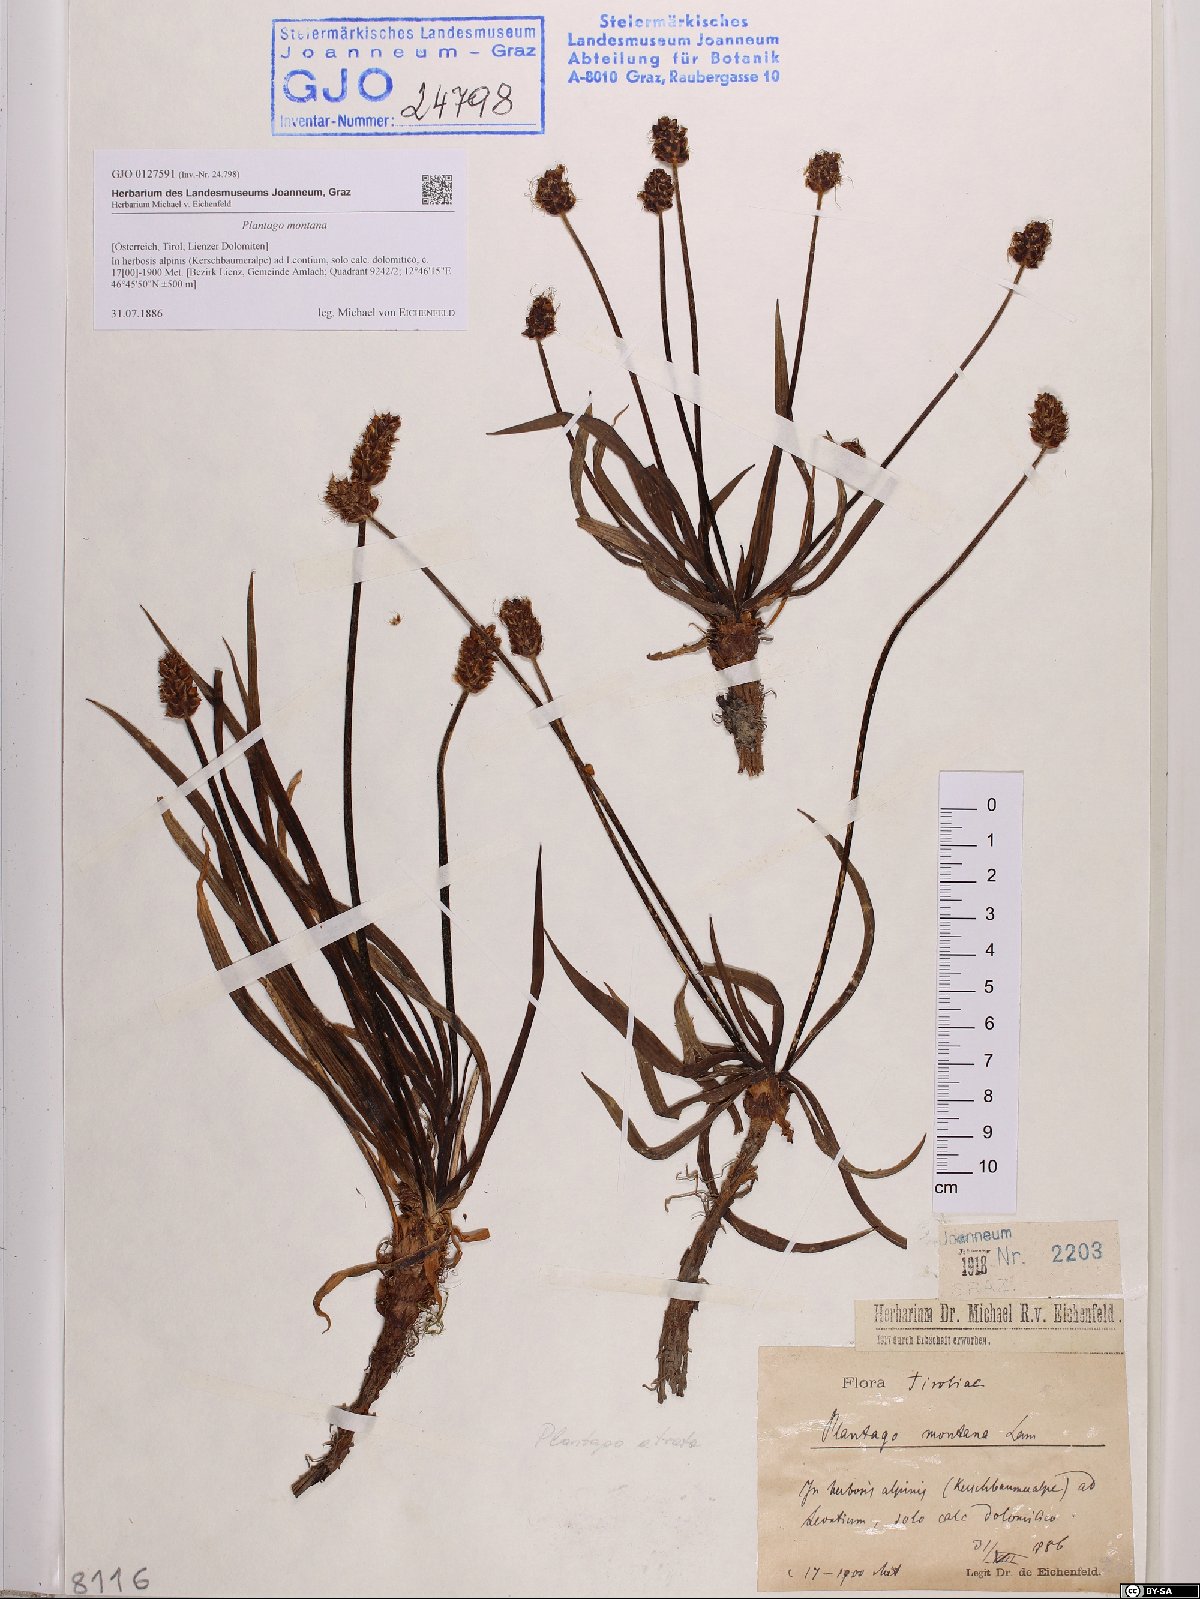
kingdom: Plantae
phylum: Tracheophyta
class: Magnoliopsida
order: Lamiales
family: Plantaginaceae
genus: Plantago
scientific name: Plantago atrata
